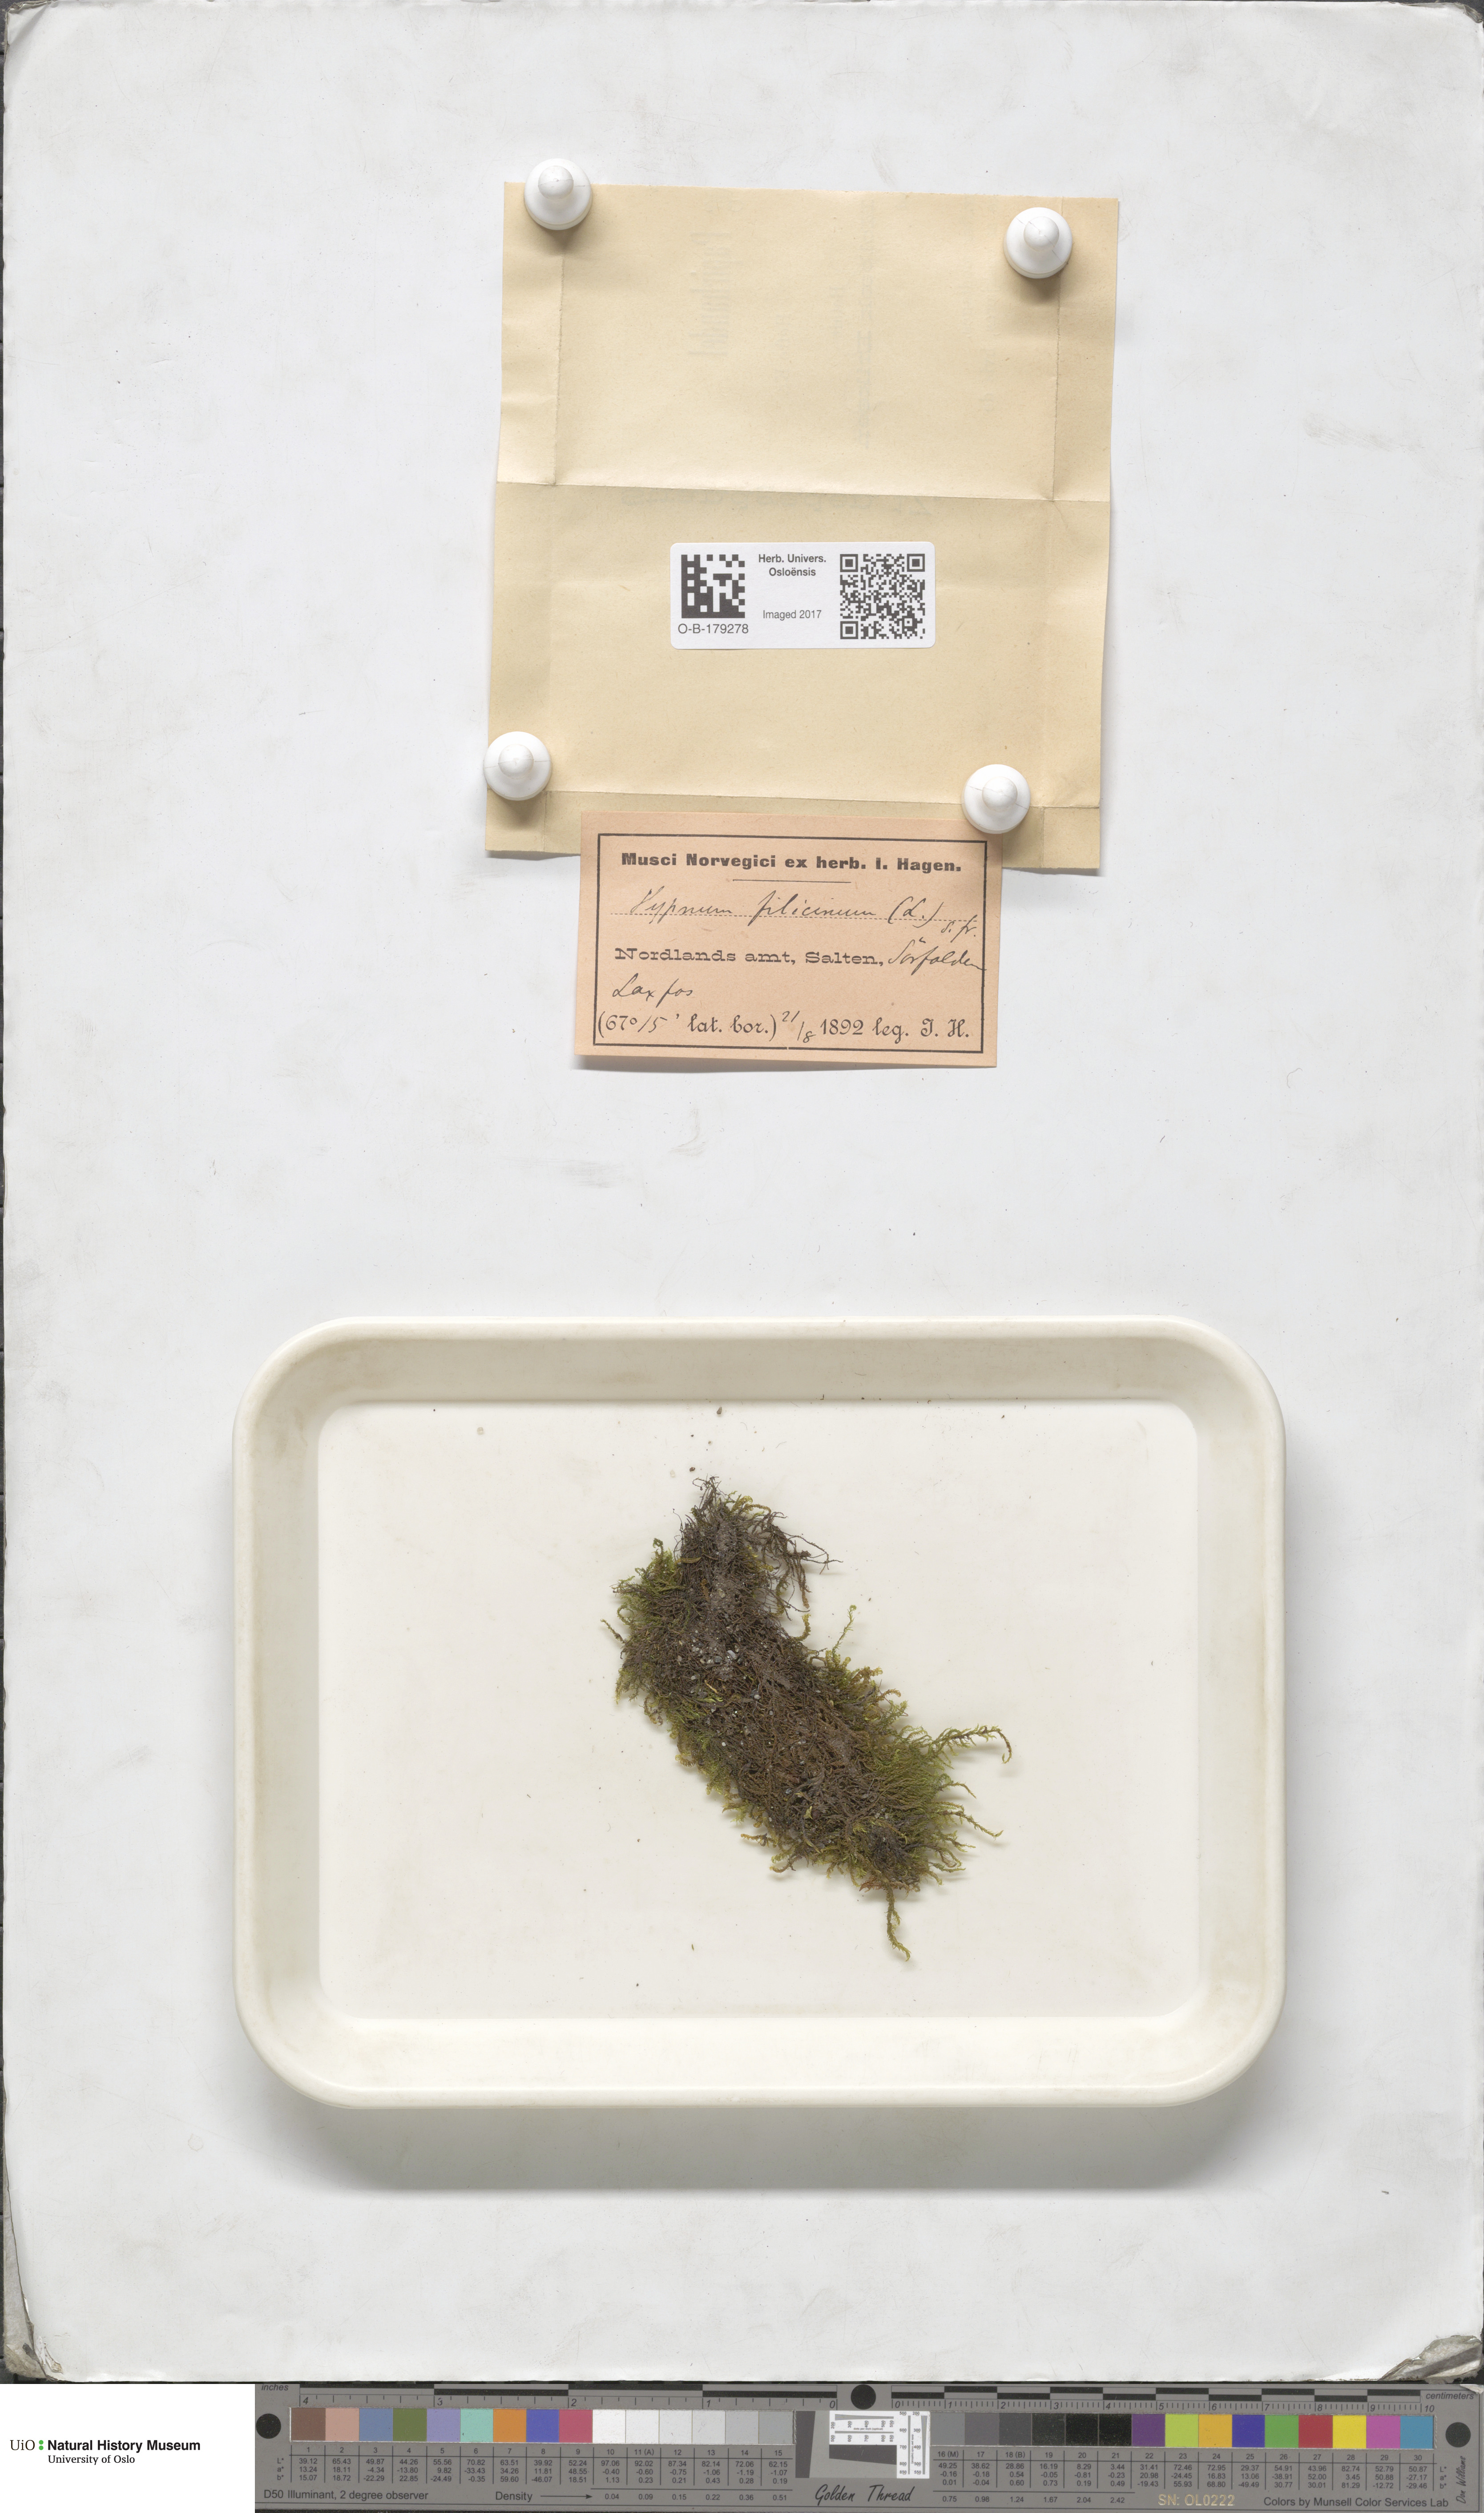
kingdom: Plantae
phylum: Bryophyta
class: Bryopsida
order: Hypnales
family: Amblystegiaceae
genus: Cratoneuron
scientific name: Cratoneuron filicinum
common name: Fern-leaved hook moss
